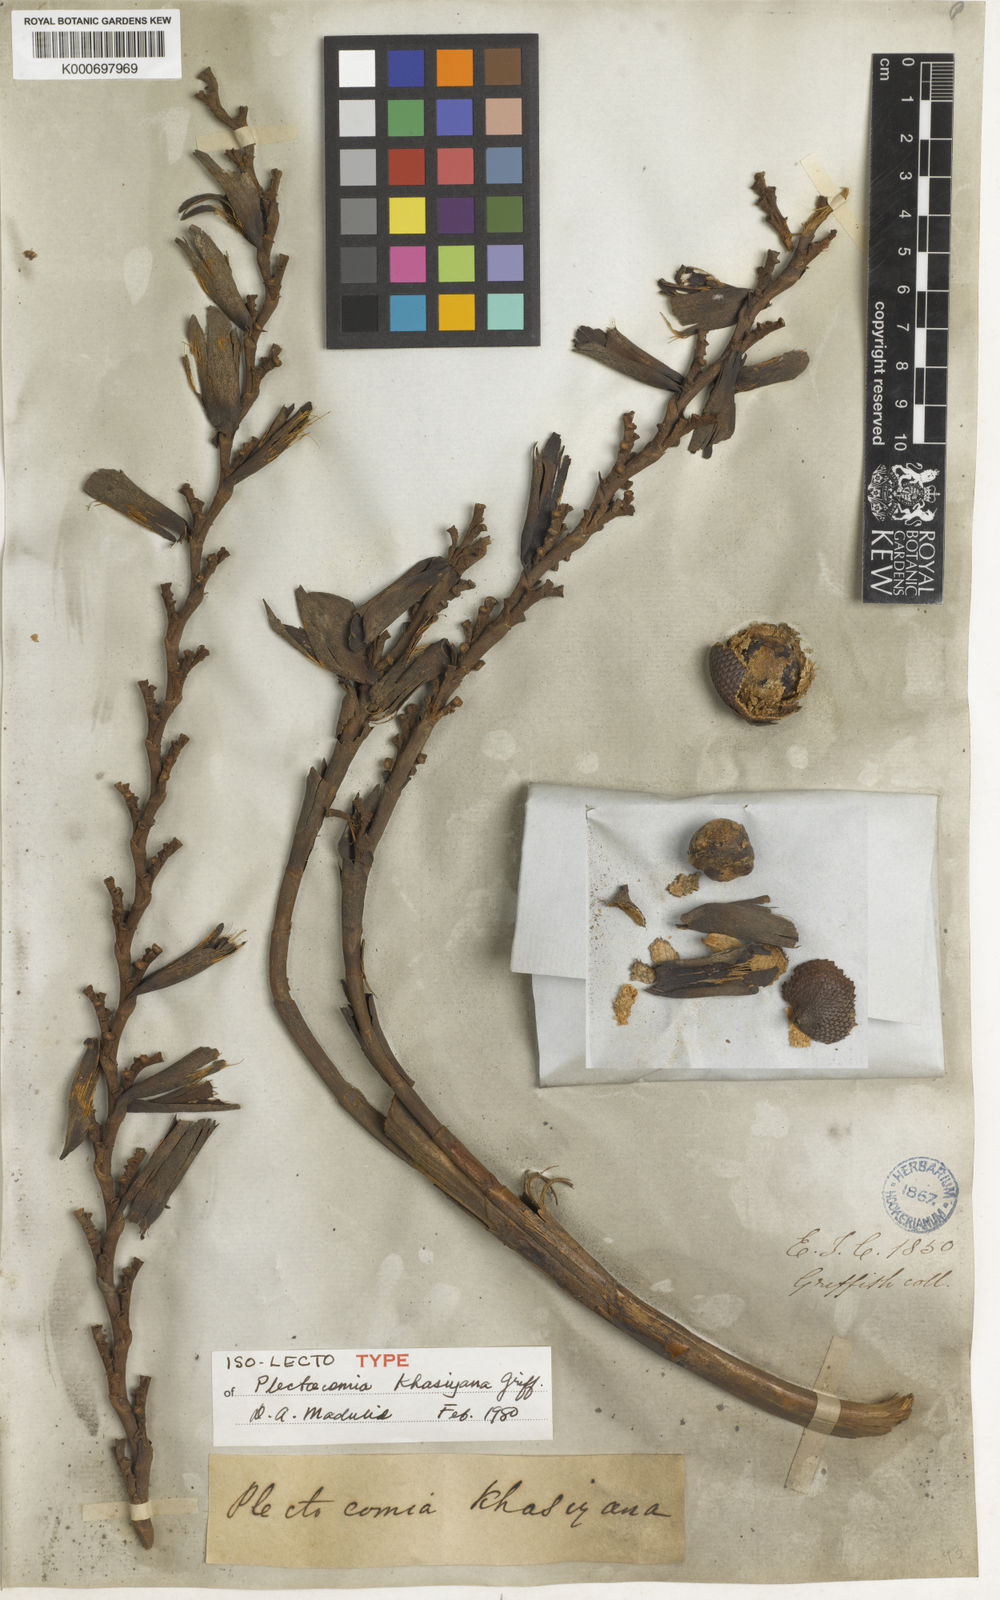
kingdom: Plantae
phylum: Tracheophyta
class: Liliopsida
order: Arecales
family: Arecaceae
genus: Plectocomia
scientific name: Plectocomia elongata
